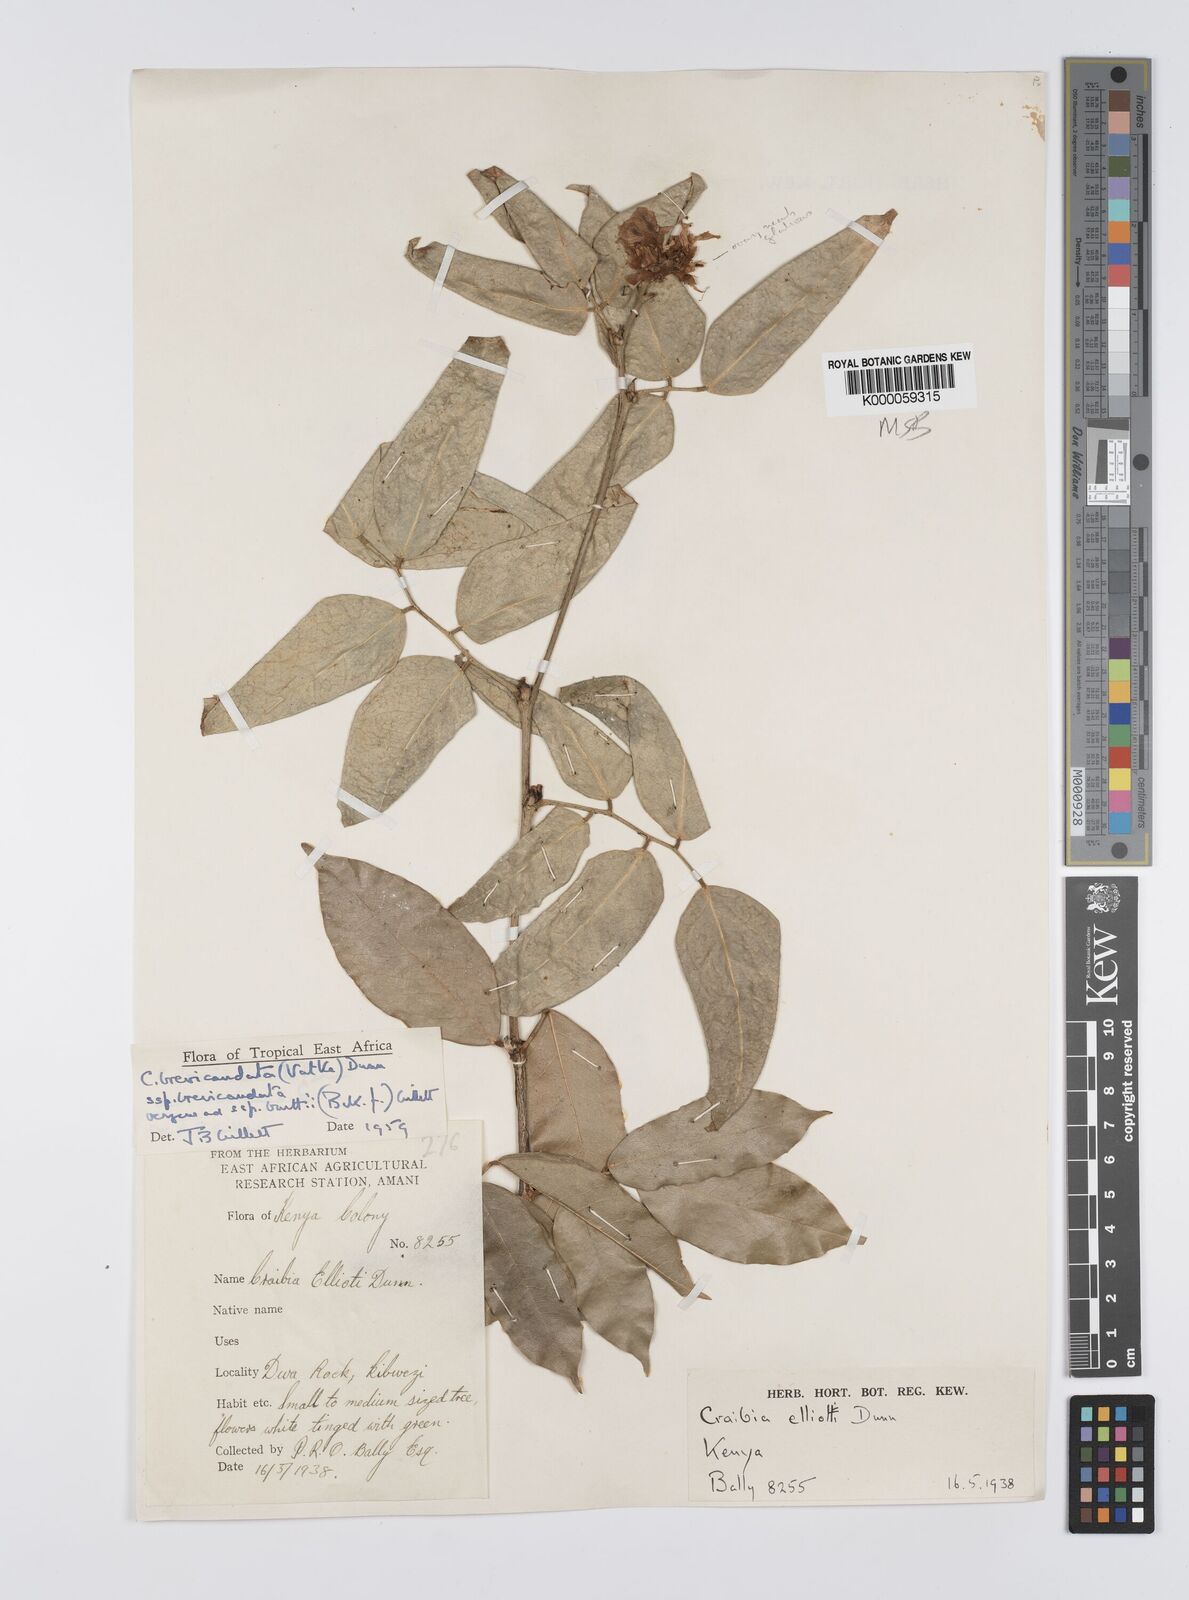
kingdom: Plantae
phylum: Tracheophyta
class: Magnoliopsida
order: Fabales
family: Fabaceae
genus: Craibia
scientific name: Craibia brevicaudata
